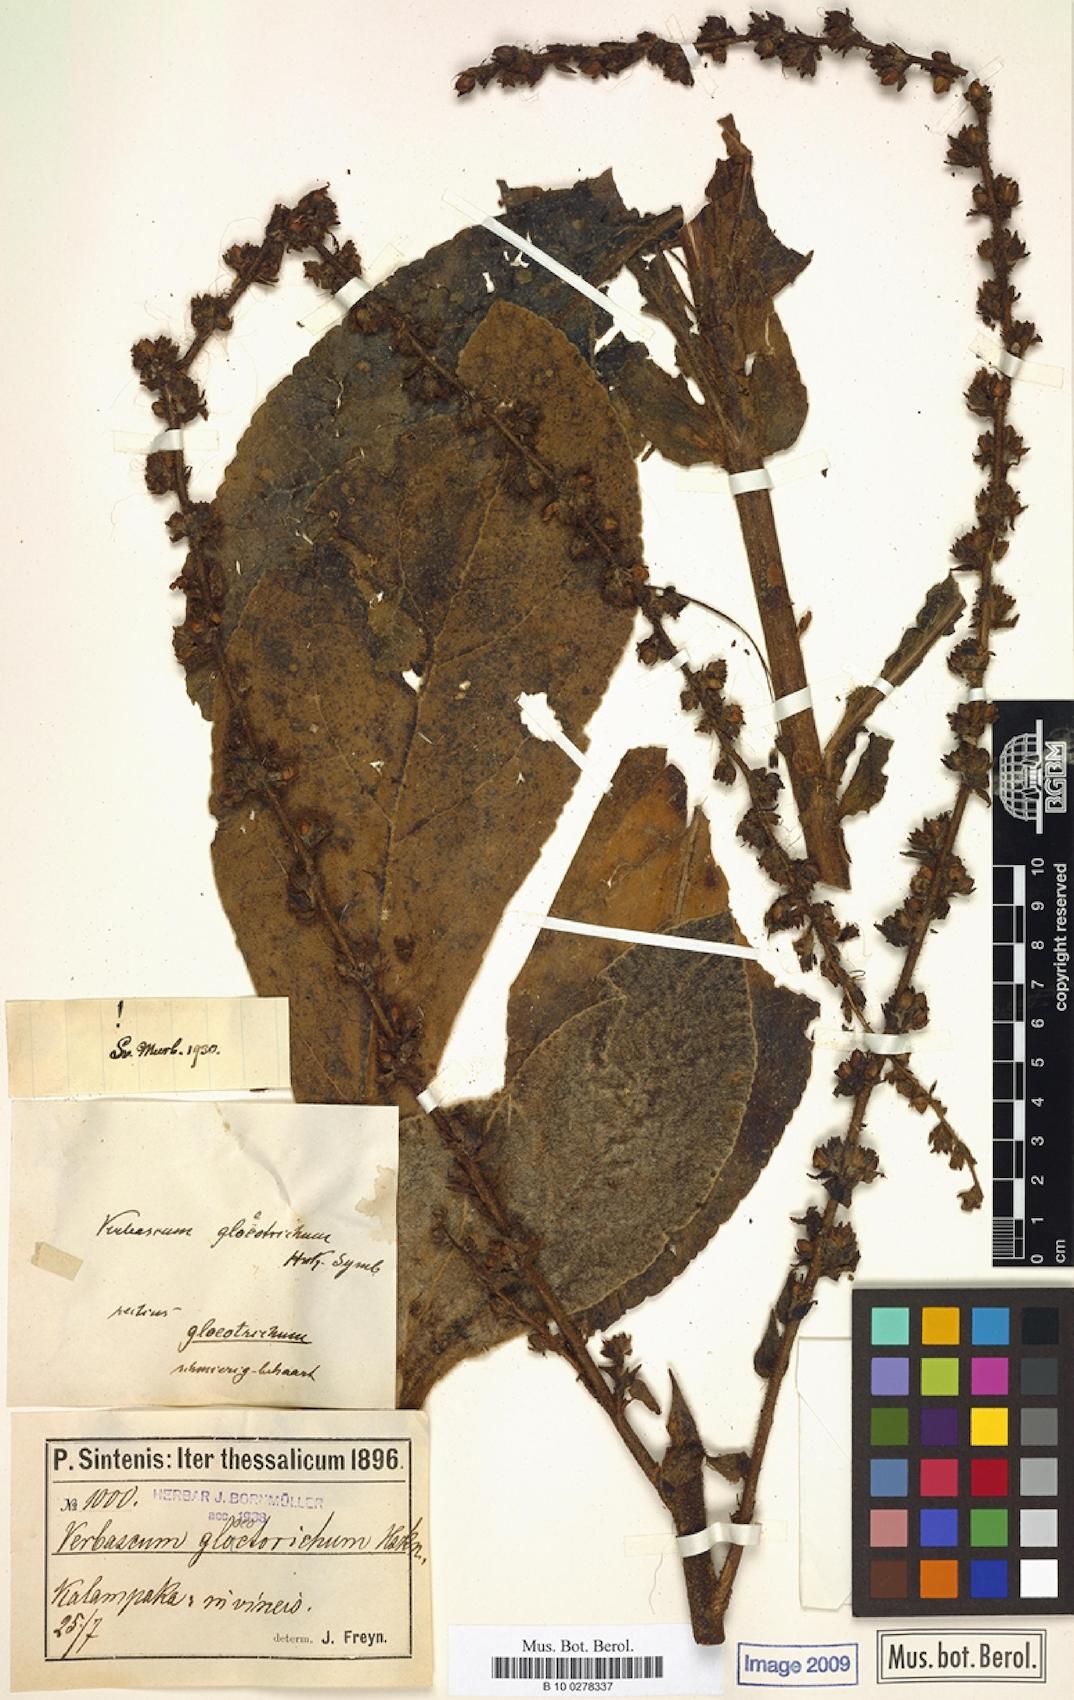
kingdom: Plantae
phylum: Tracheophyta
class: Magnoliopsida
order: Lamiales
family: Scrophulariaceae
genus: Verbascum
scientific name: Verbascum gloeotrichum
